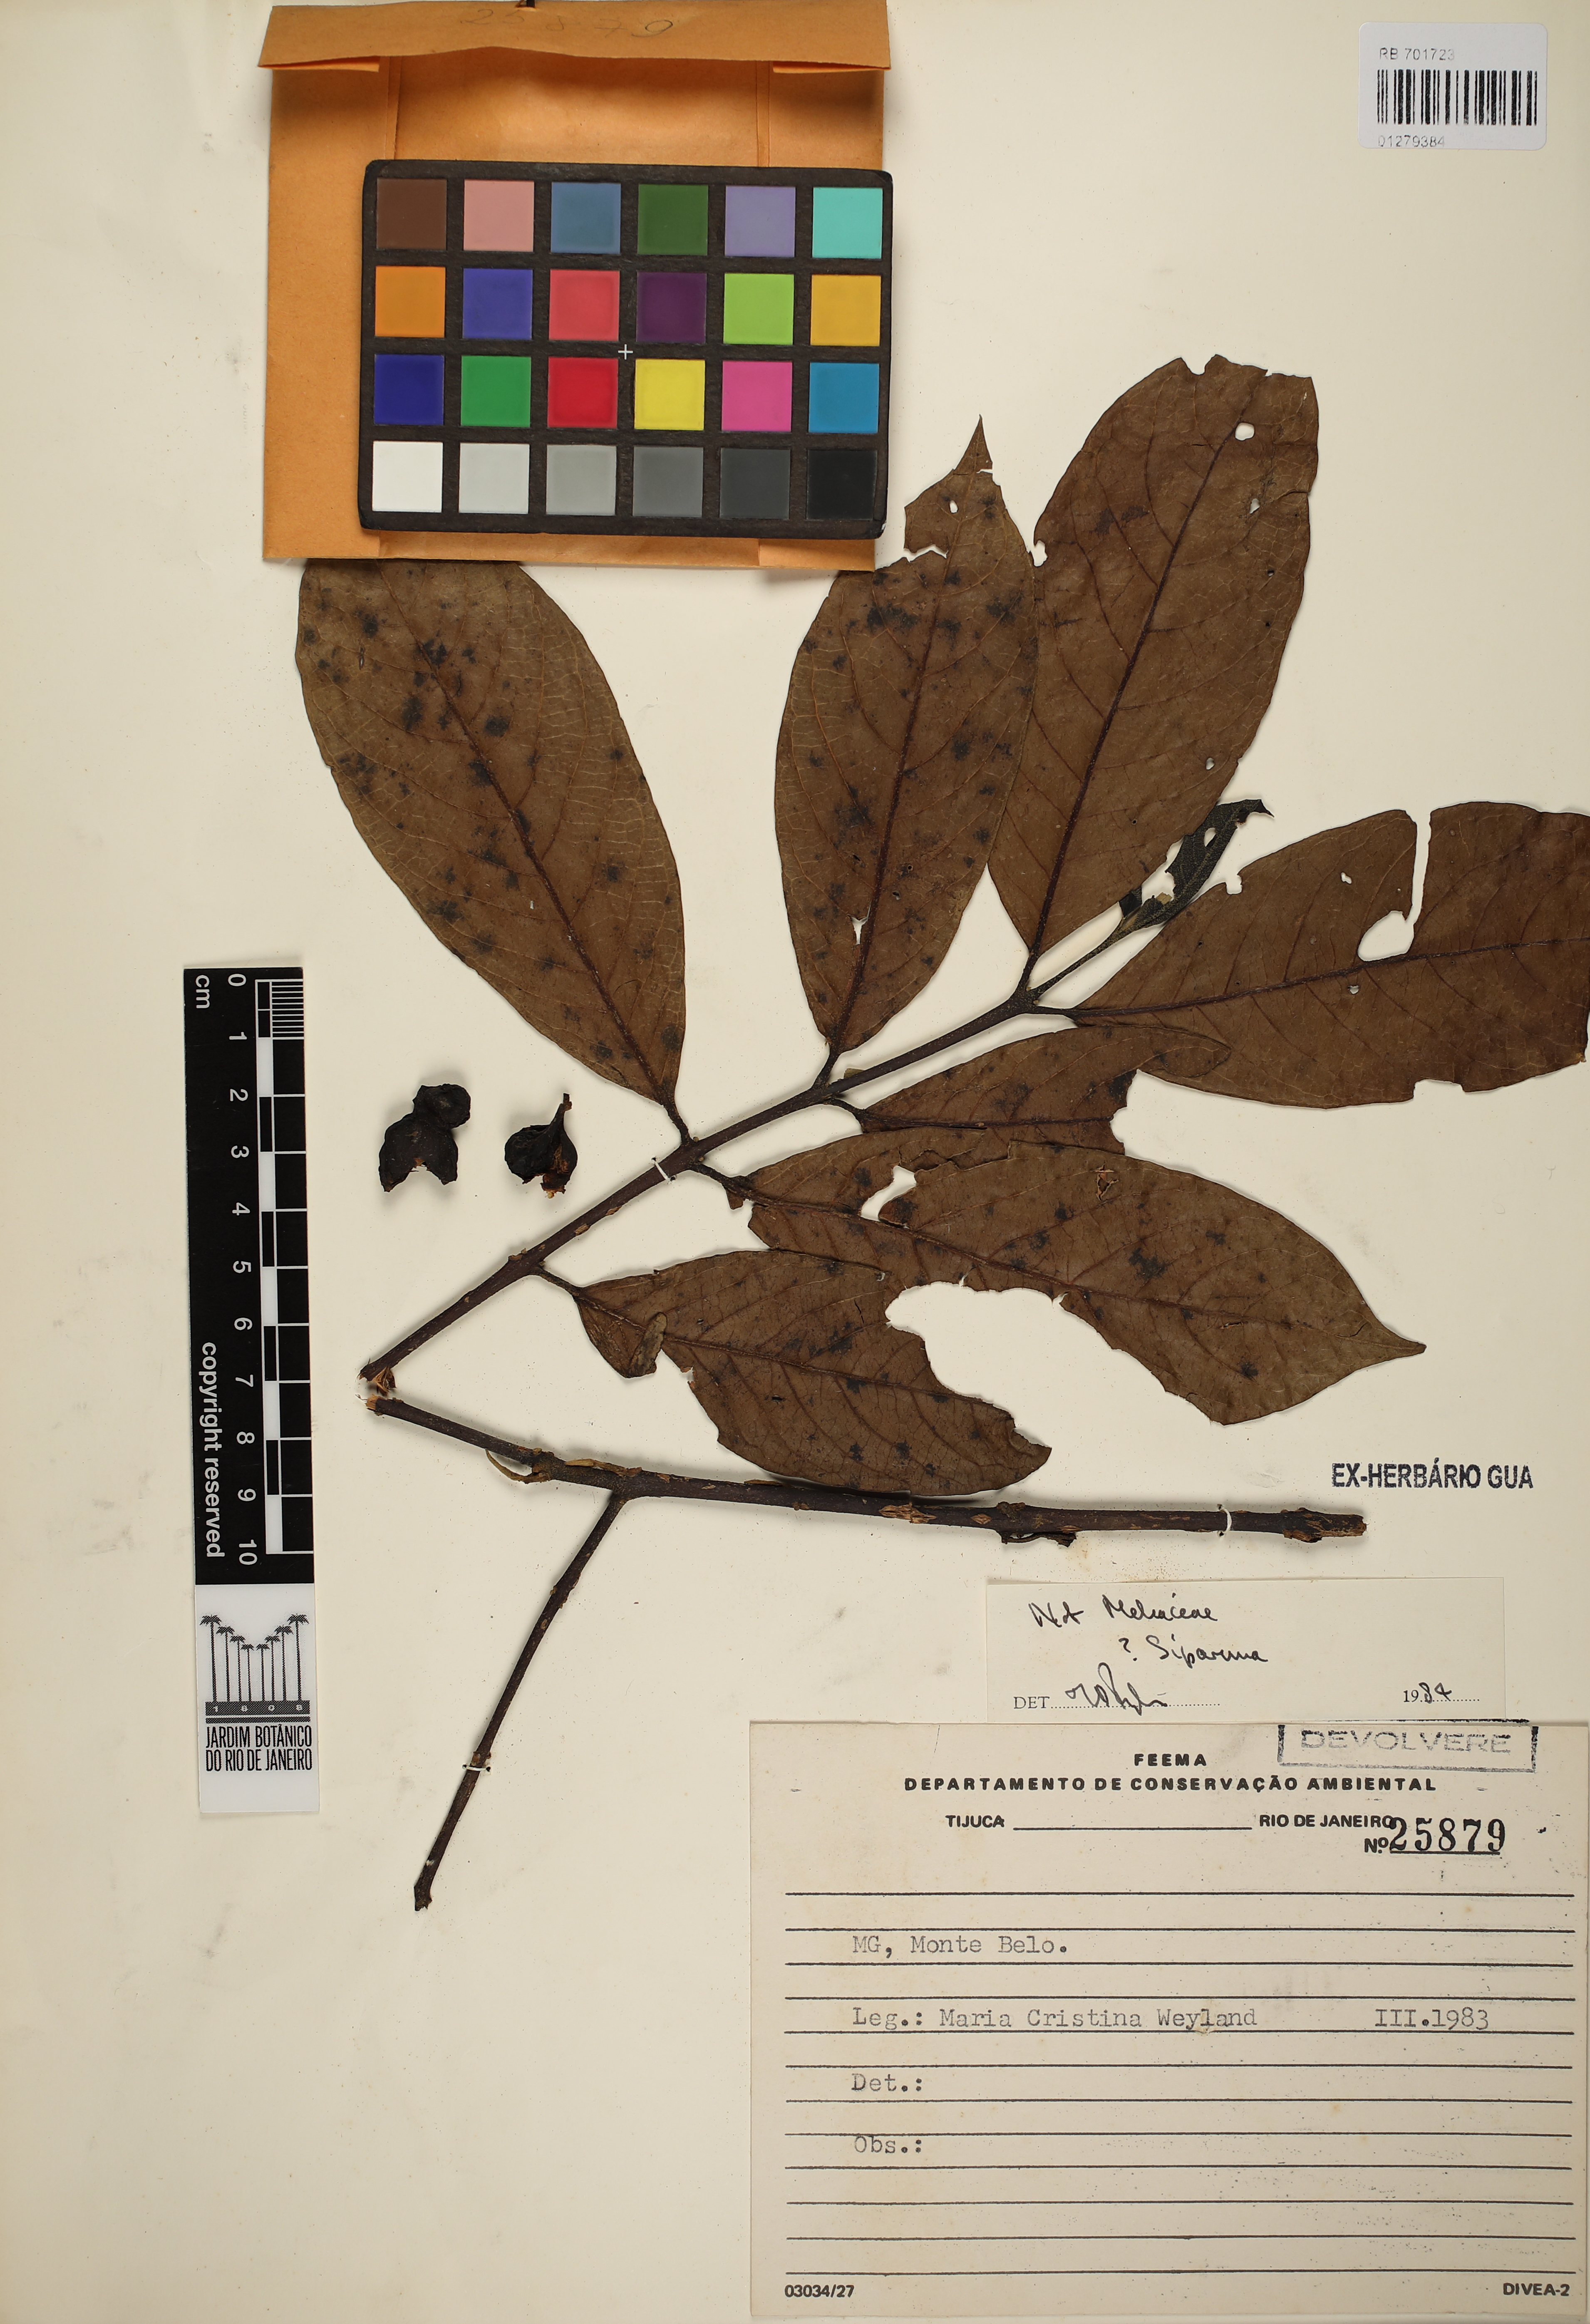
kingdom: Plantae
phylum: Tracheophyta
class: Magnoliopsida
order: Laurales
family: Siparunaceae
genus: Siparuna
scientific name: Siparuna
